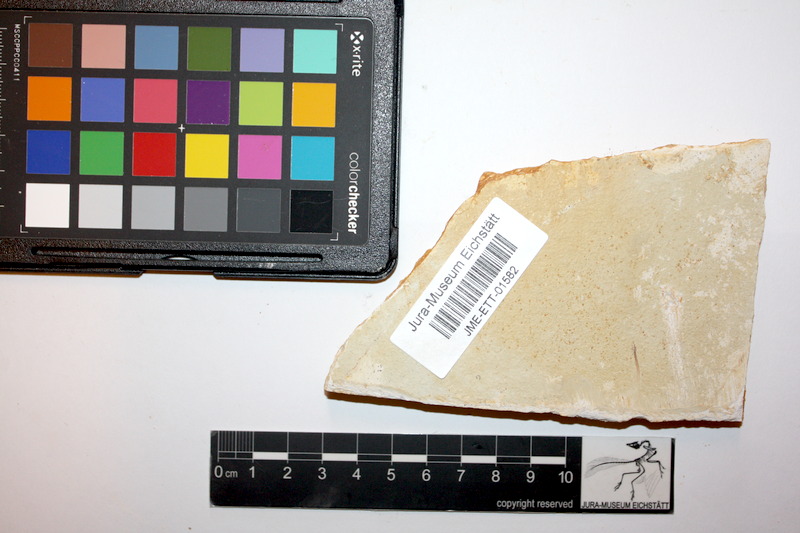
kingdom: Animalia
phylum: Chordata
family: Aspidorhynchidae
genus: Belonostomus
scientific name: Belonostomus kochii
